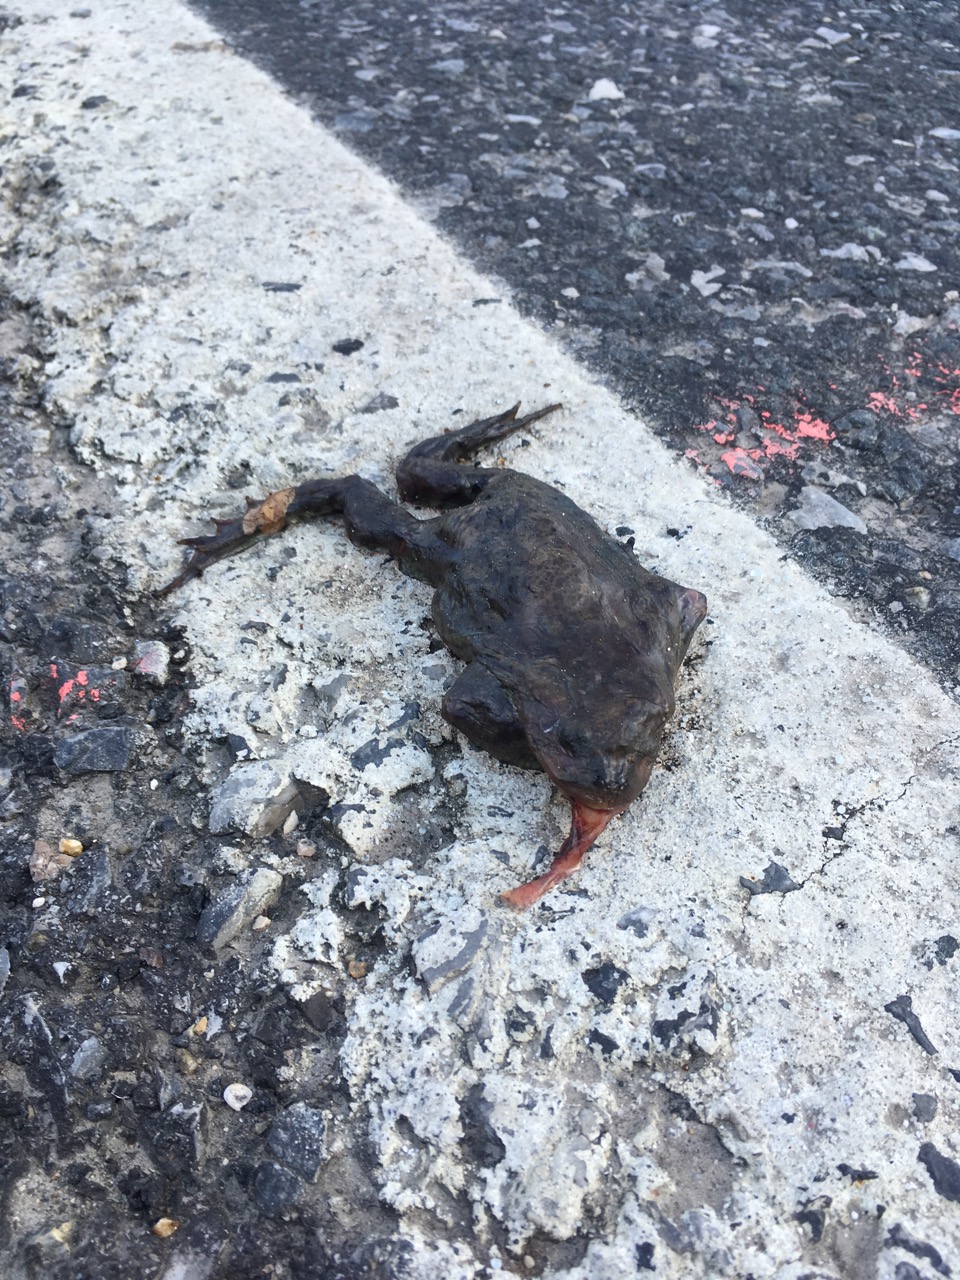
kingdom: Animalia
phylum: Chordata
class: Amphibia
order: Anura
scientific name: Anura
